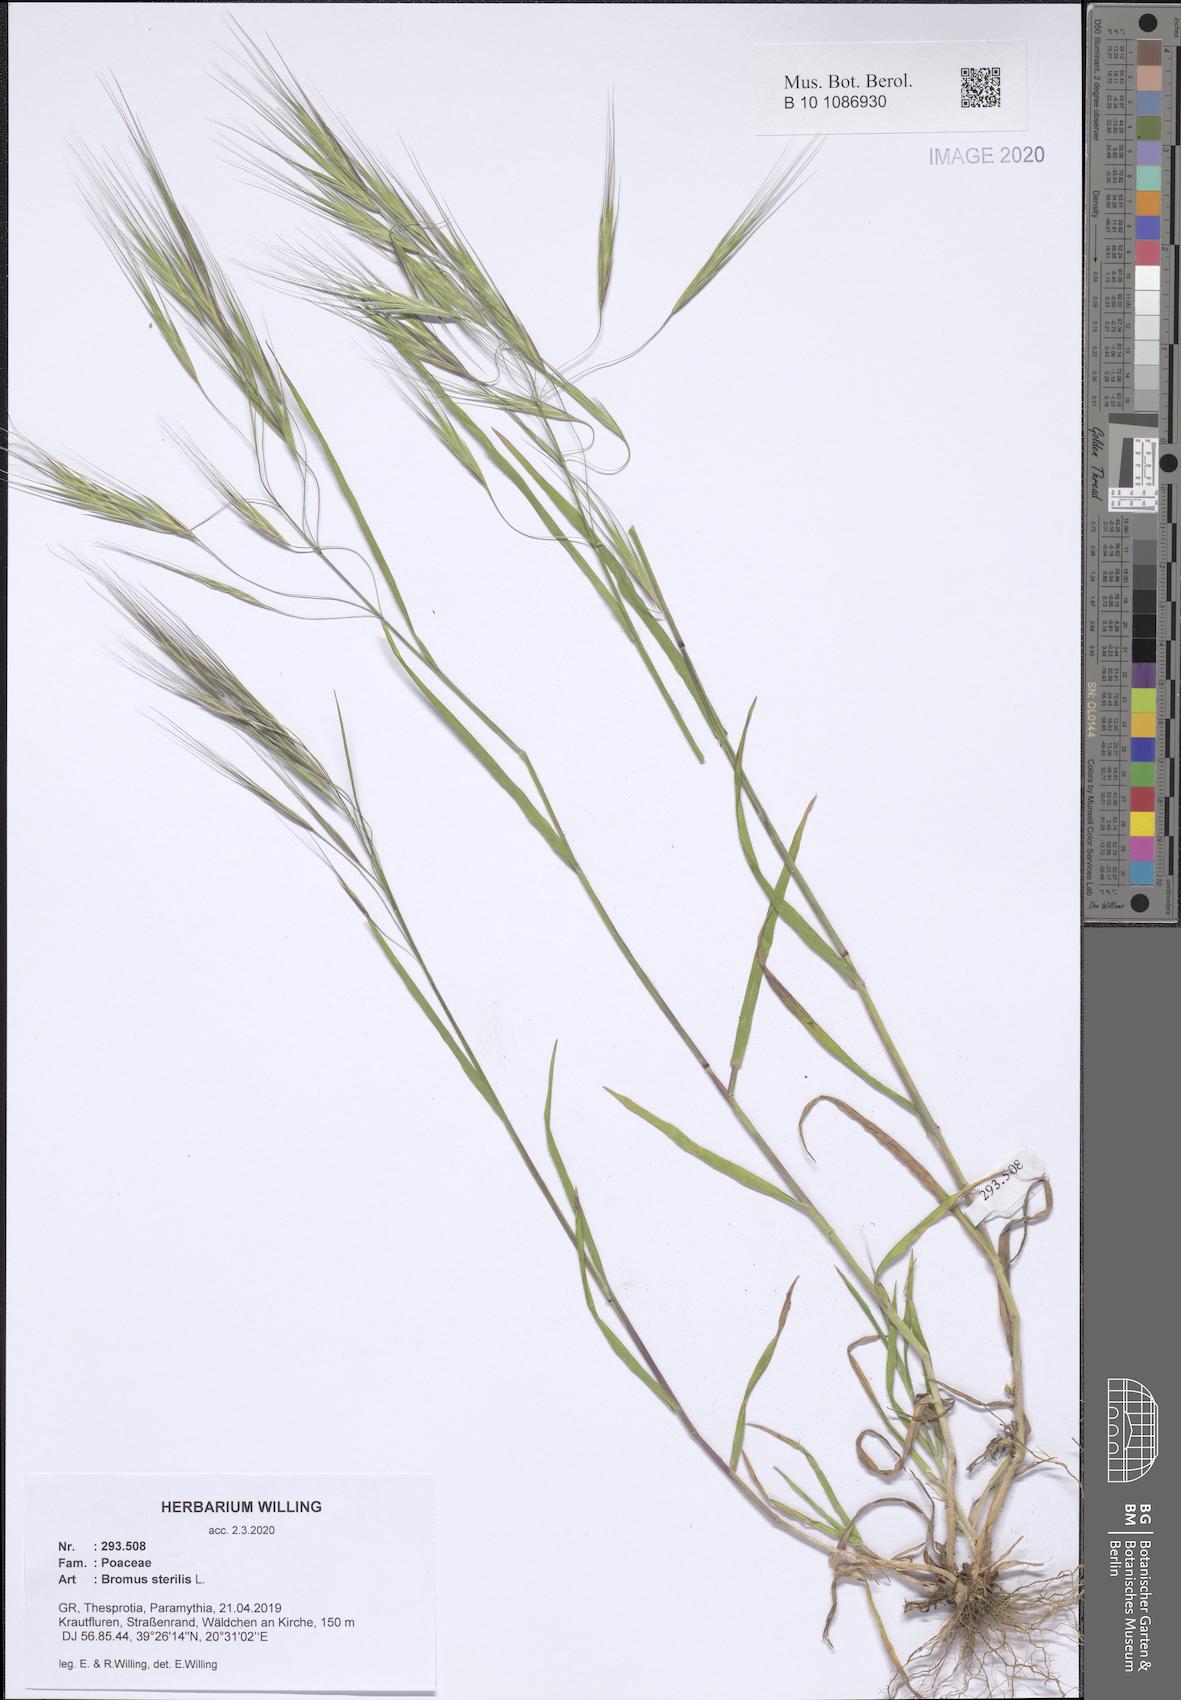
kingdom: Plantae
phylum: Tracheophyta
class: Liliopsida
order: Poales
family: Poaceae
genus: Bromus
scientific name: Bromus sterilis
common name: Poverty brome
